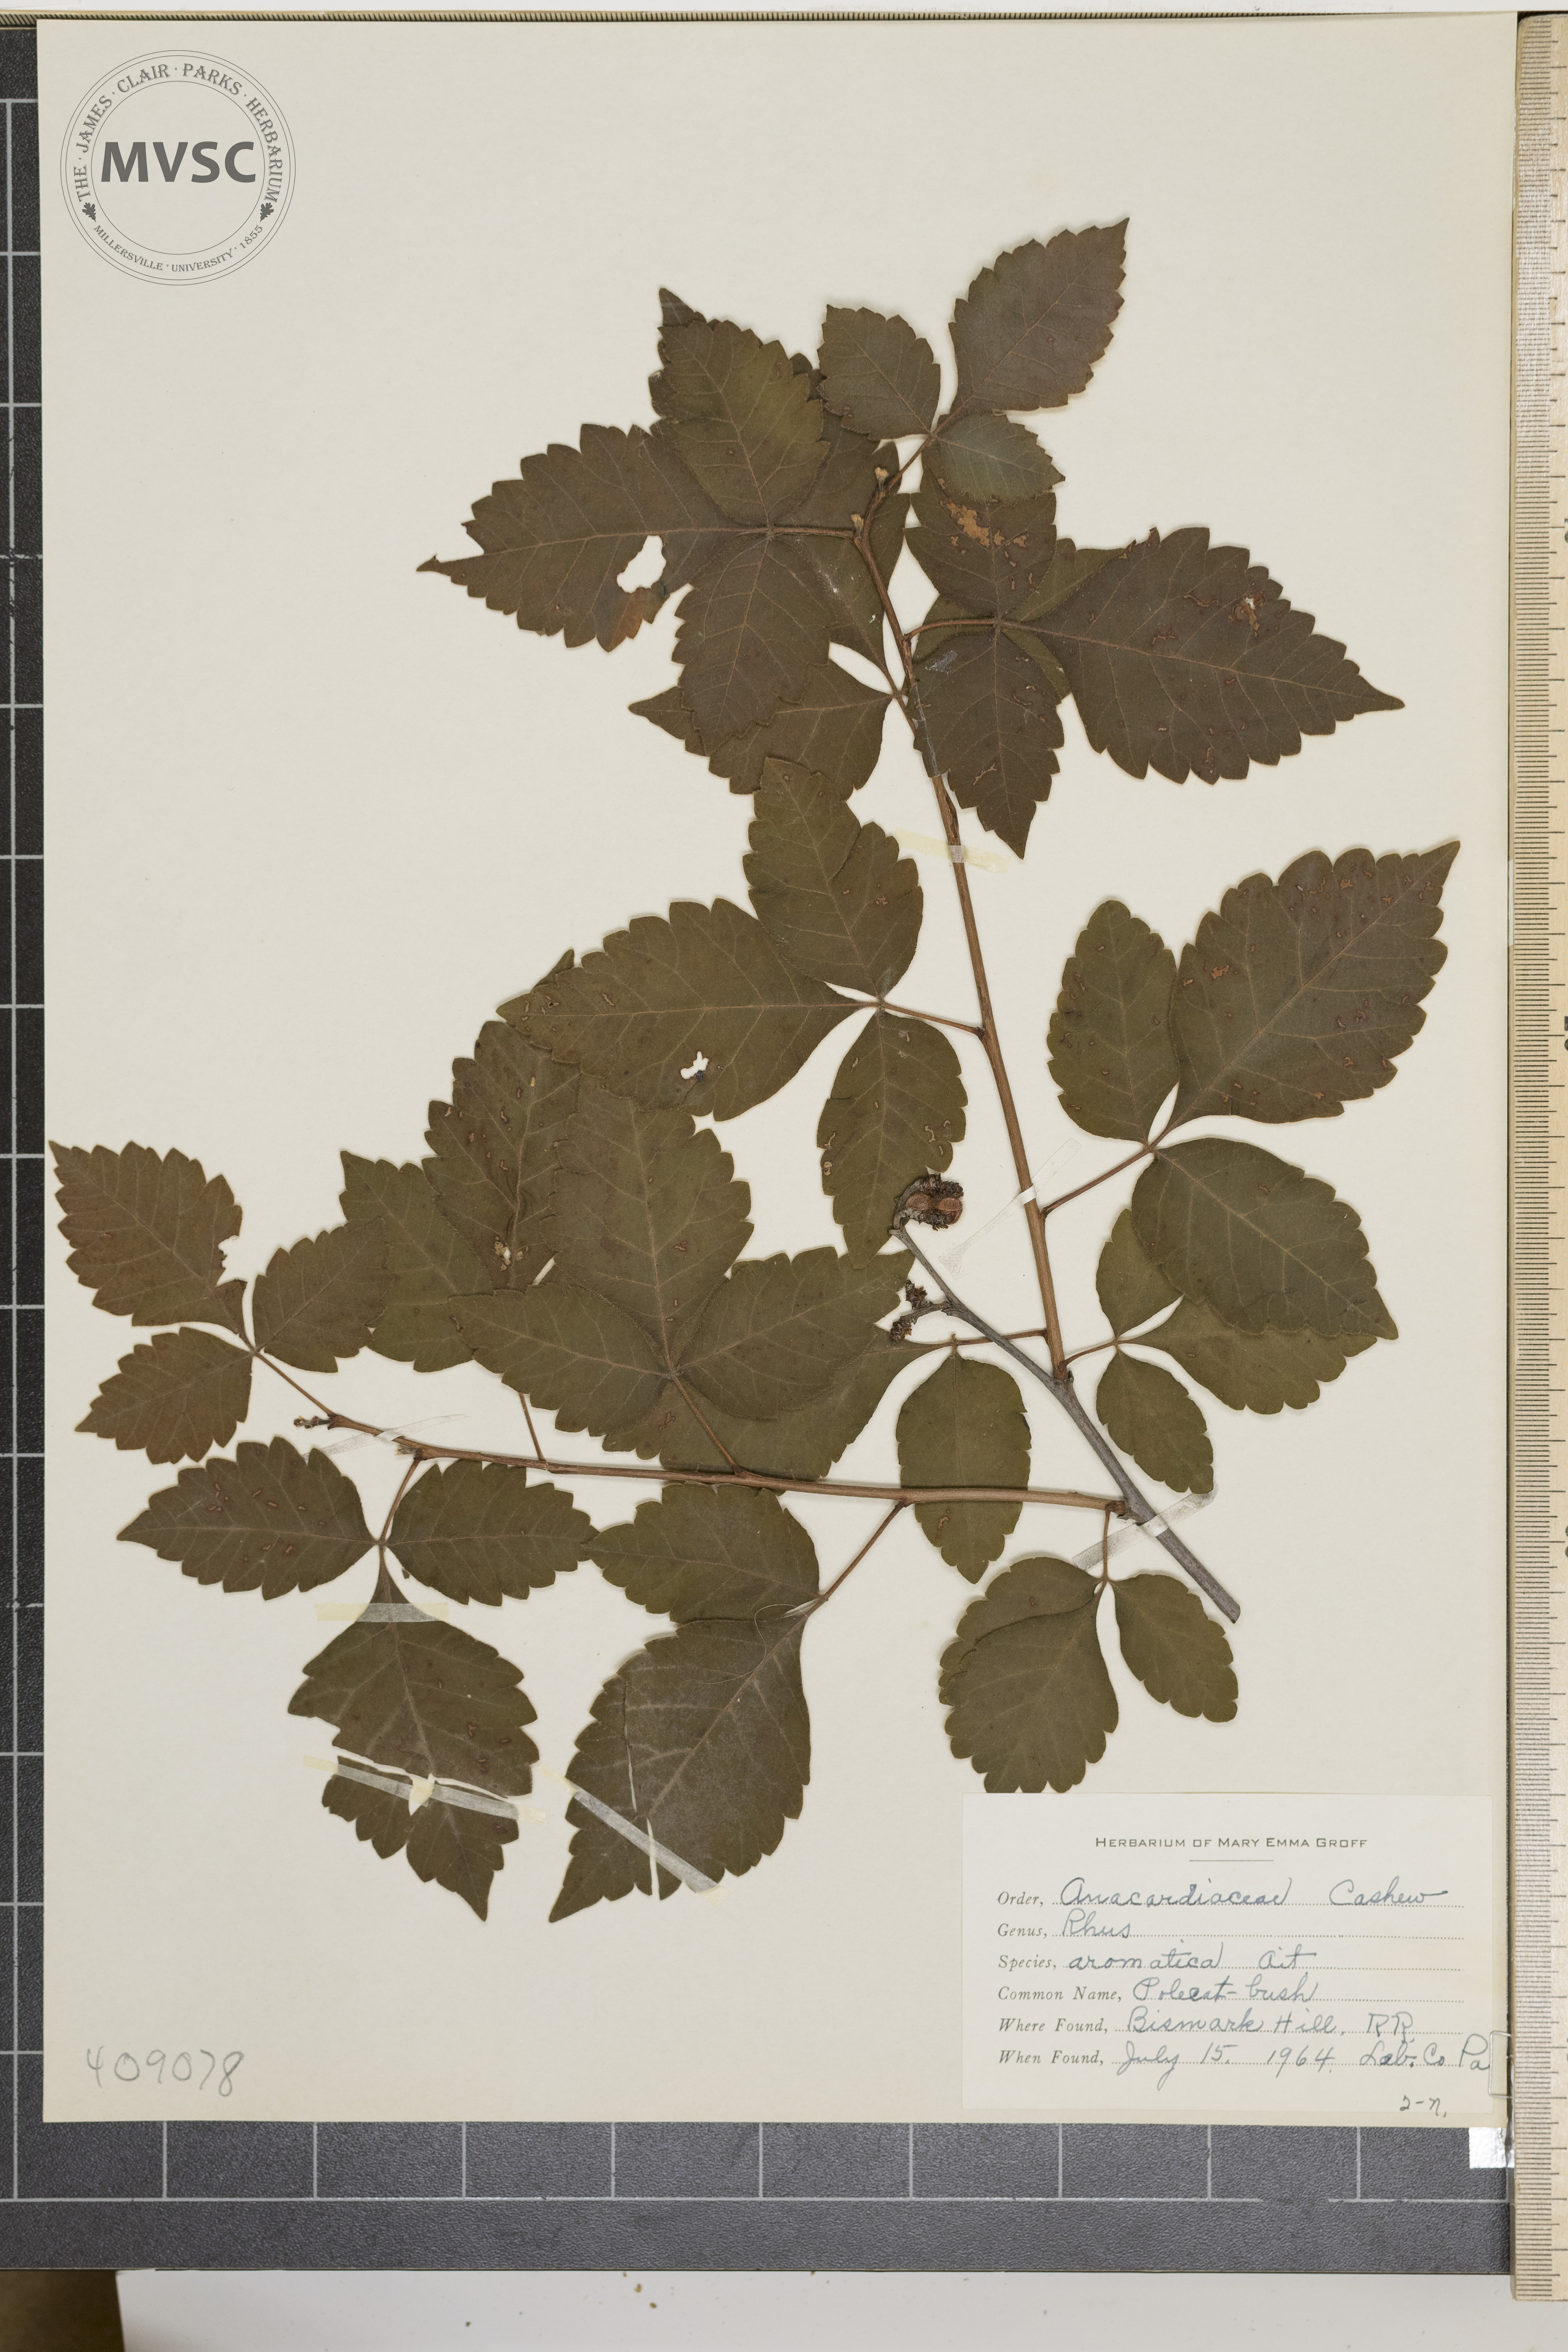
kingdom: Plantae
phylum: Tracheophyta
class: Magnoliopsida
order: Sapindales
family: Anacardiaceae
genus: Rhus
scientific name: Rhus aromatica
